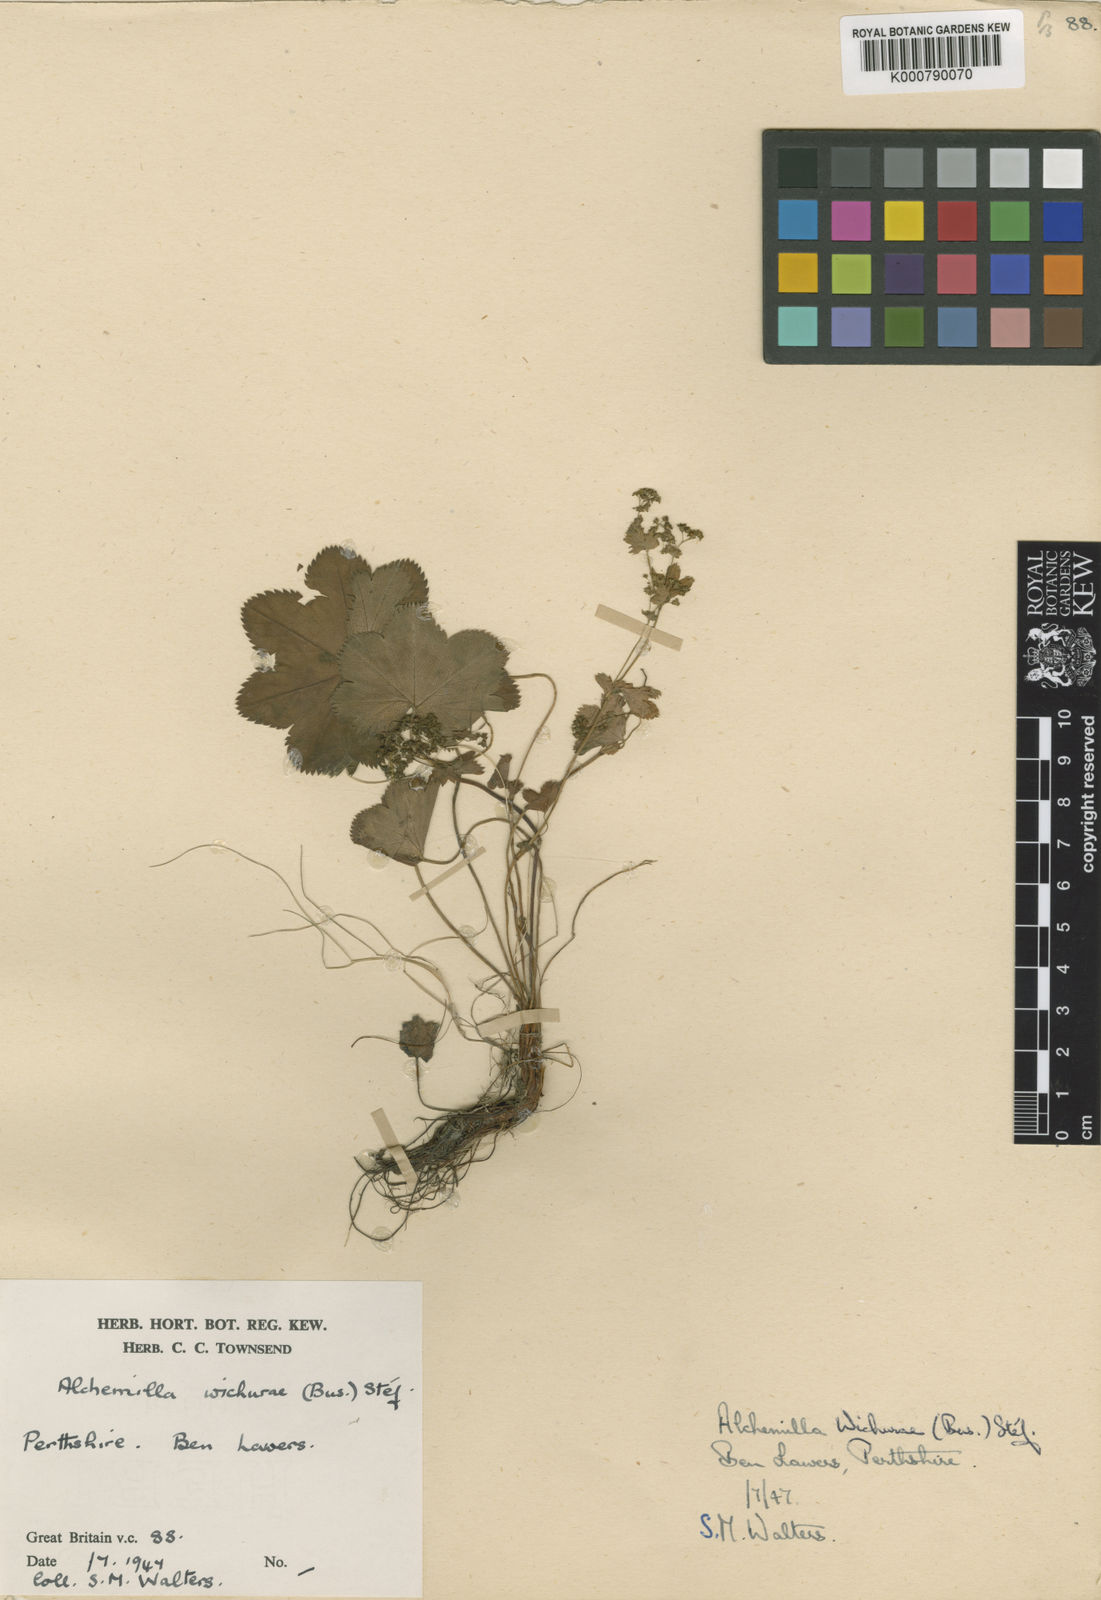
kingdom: Plantae
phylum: Tracheophyta
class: Magnoliopsida
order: Rosales
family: Rosaceae
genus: Alchemilla
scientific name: Alchemilla wichurae
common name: Rock lady's mantle
